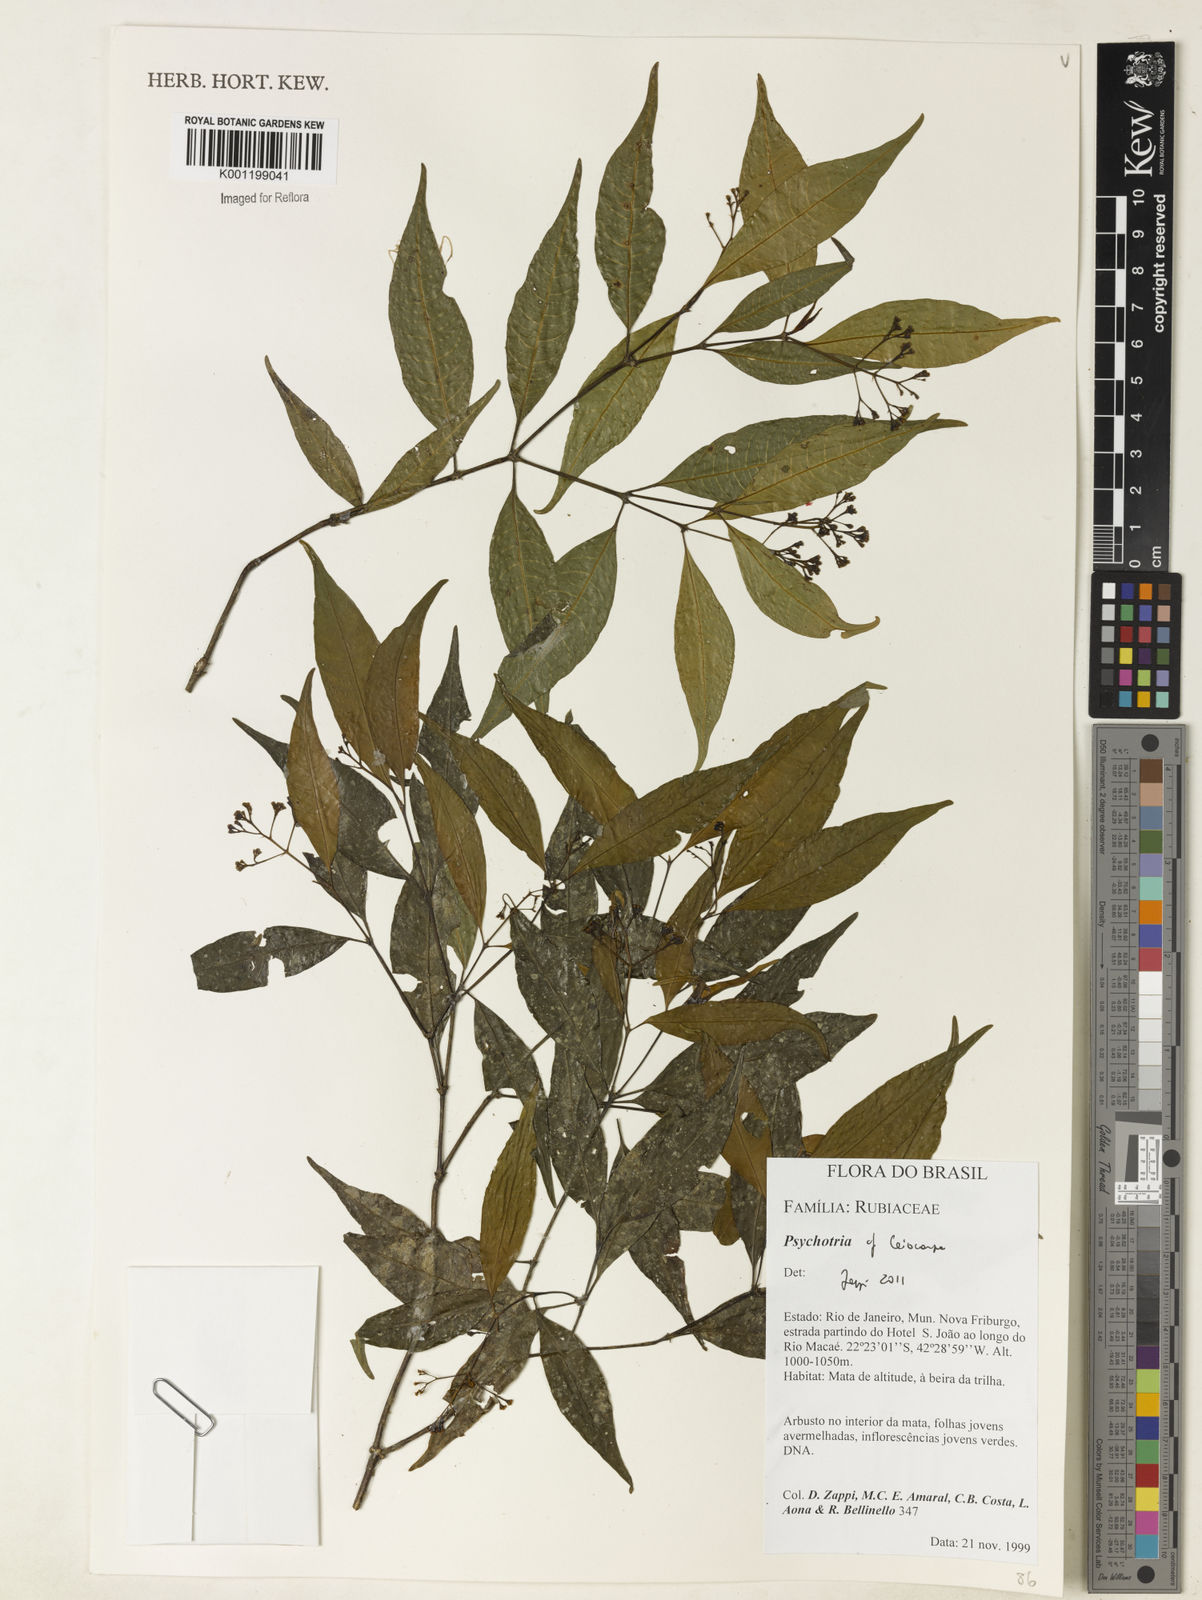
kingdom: Plantae
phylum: Tracheophyta
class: Magnoliopsida
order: Gentianales
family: Rubiaceae
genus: Psychotria
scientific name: Psychotria leiocarpa
